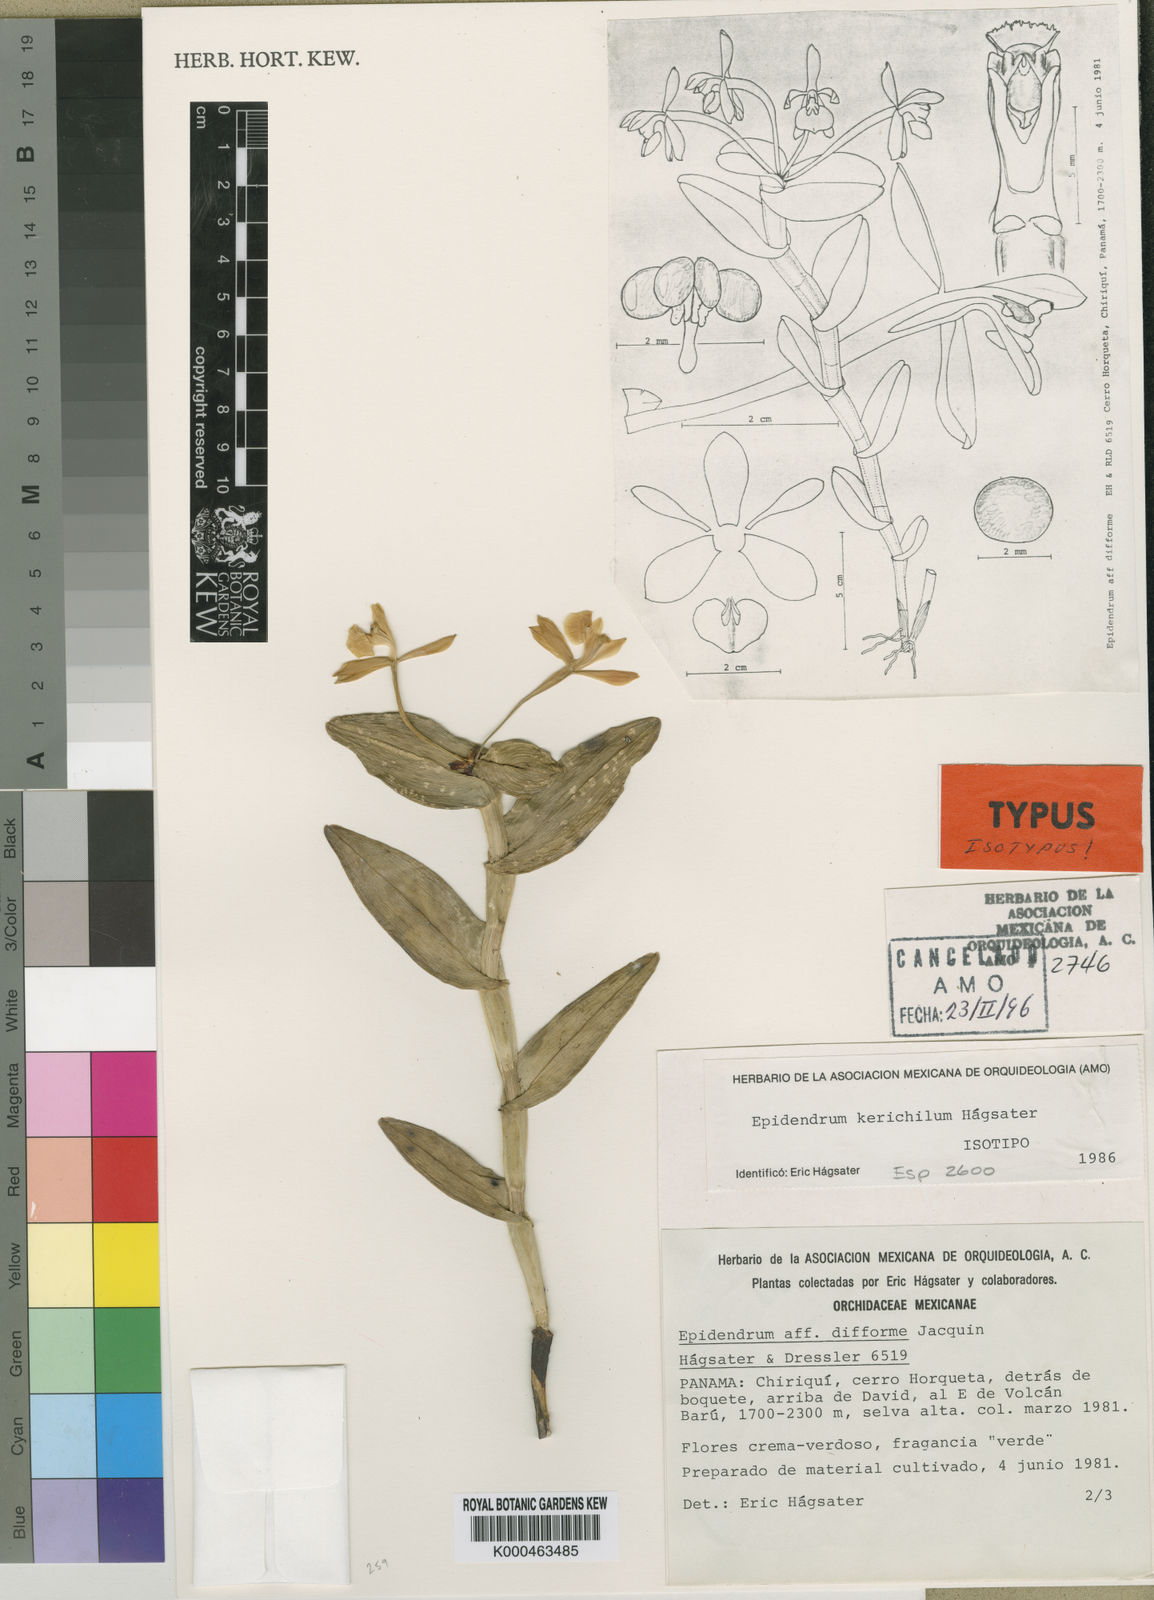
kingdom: Plantae
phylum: Tracheophyta
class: Liliopsida
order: Asparagales
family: Orchidaceae
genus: Epidendrum
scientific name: Epidendrum
